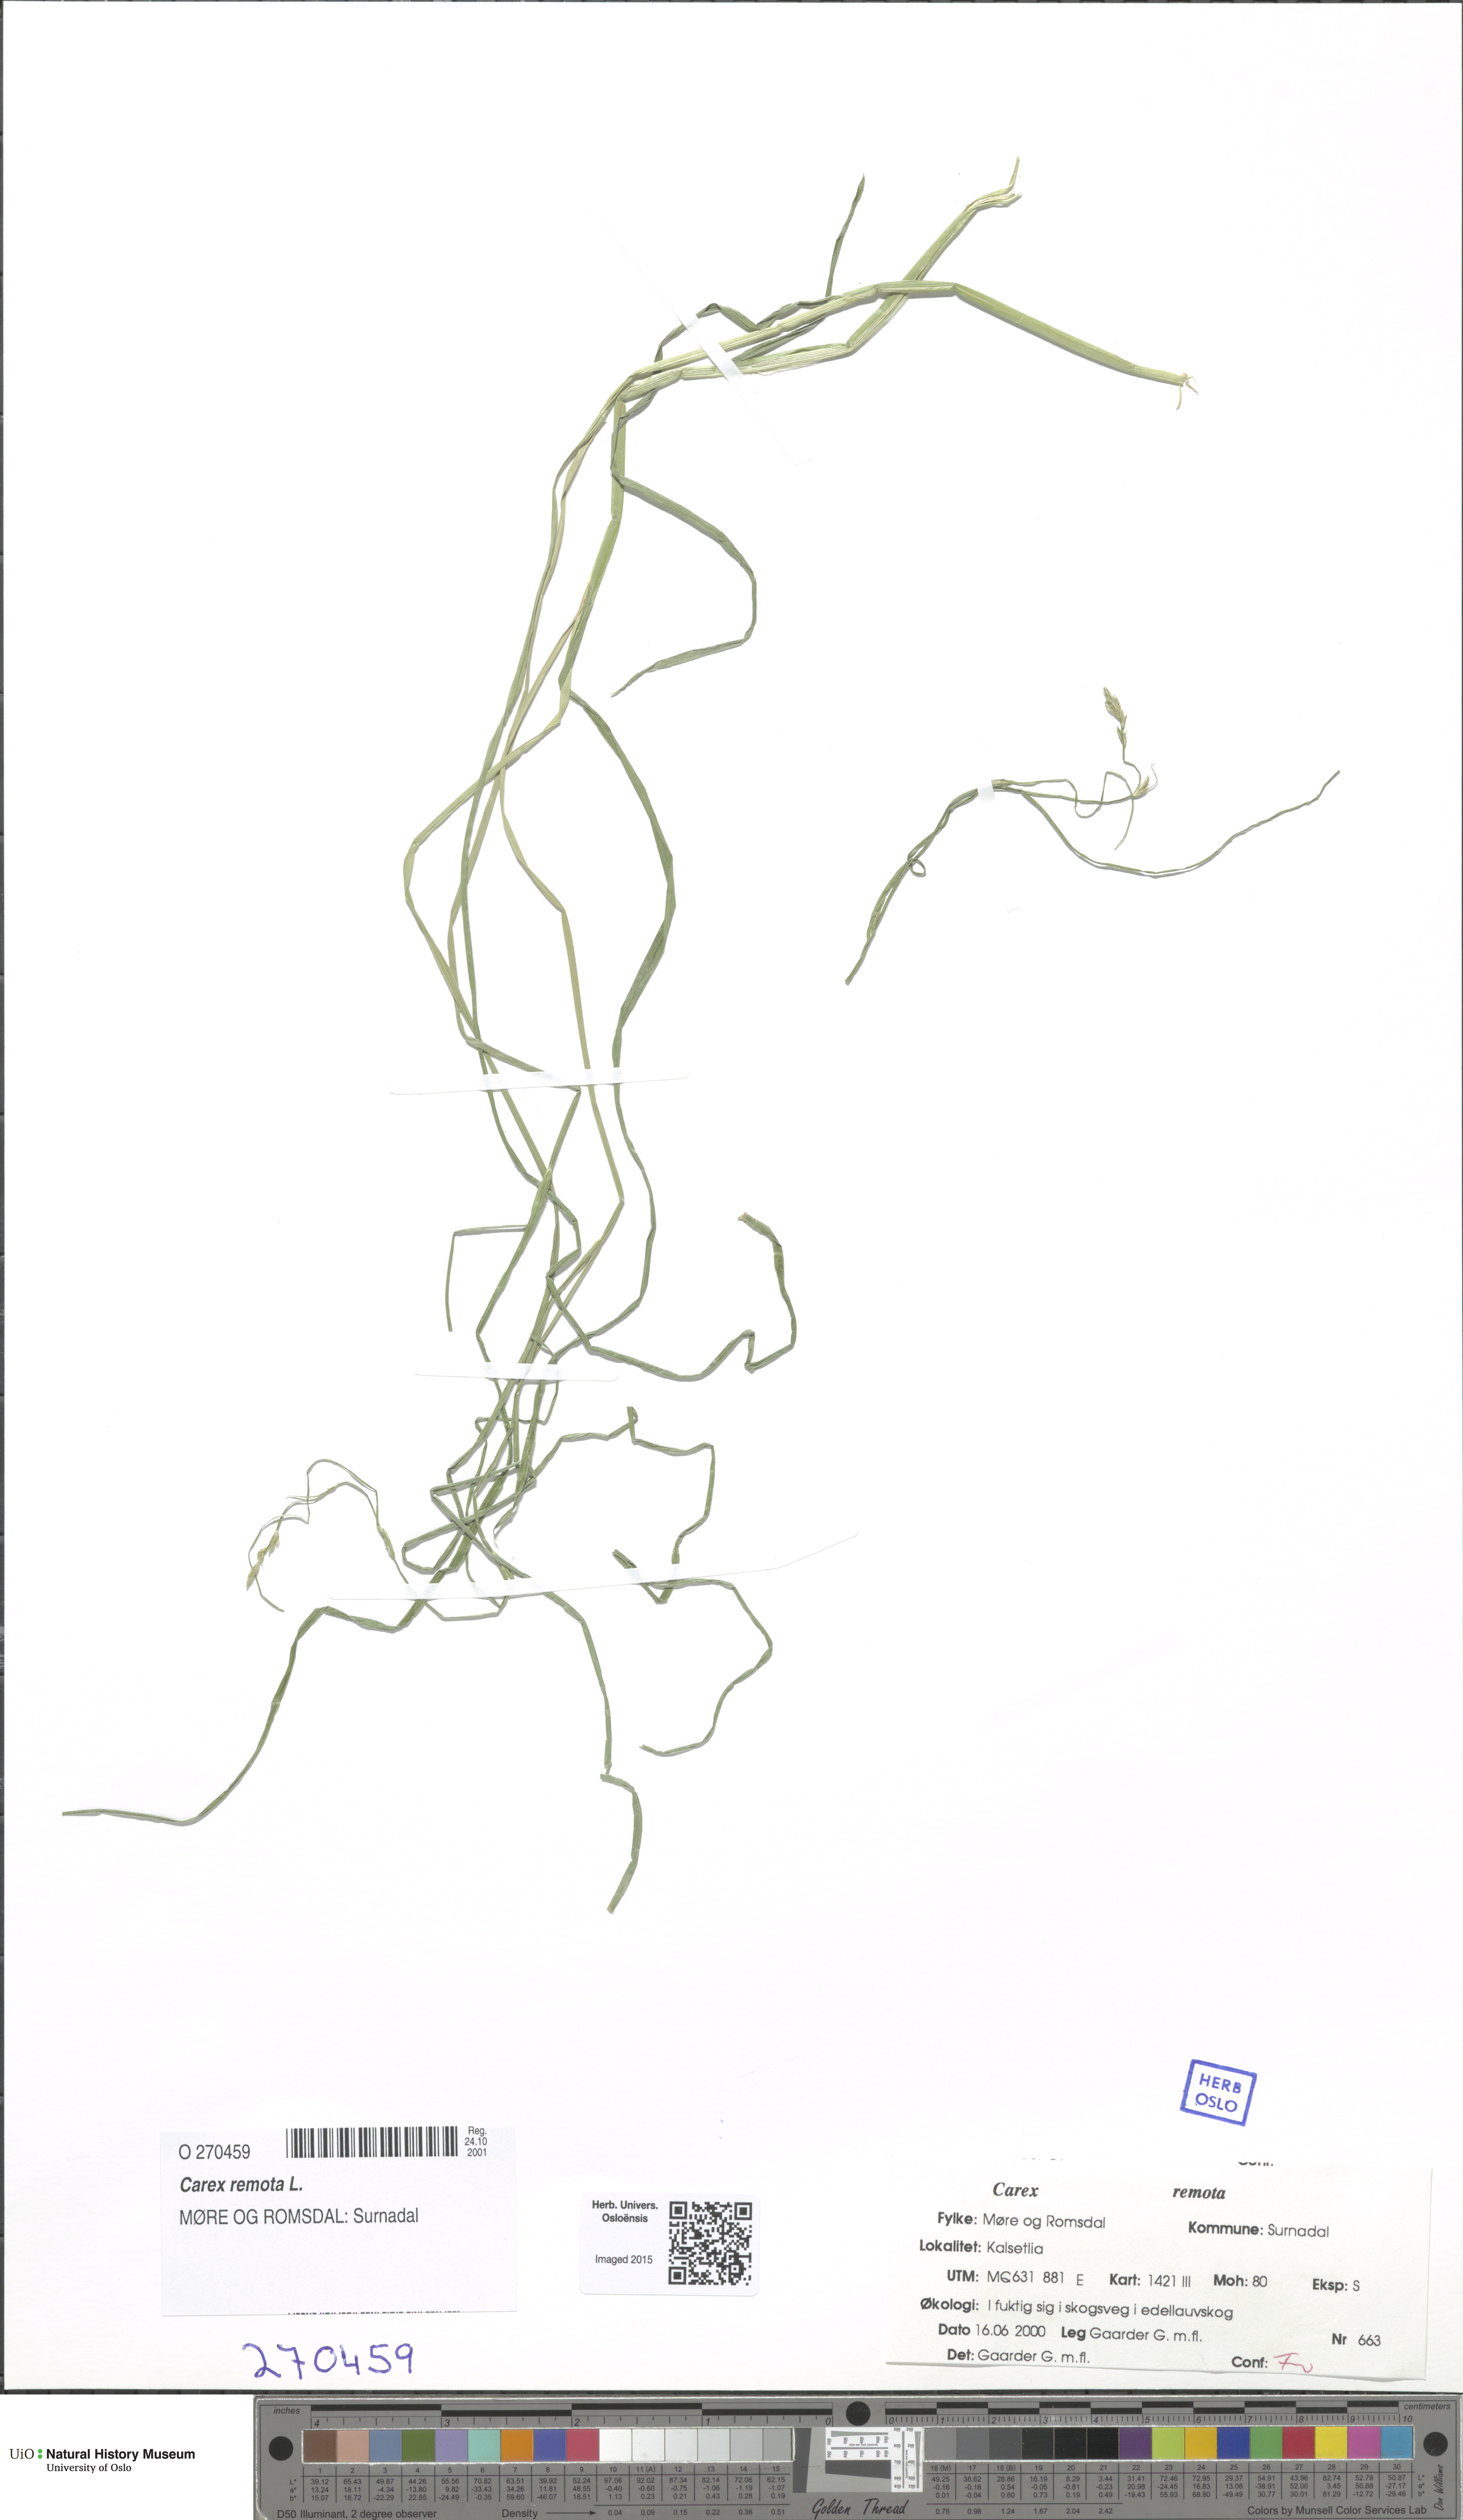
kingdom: Plantae
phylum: Tracheophyta
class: Liliopsida
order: Poales
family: Cyperaceae
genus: Carex
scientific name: Carex remota
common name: Remote sedge
